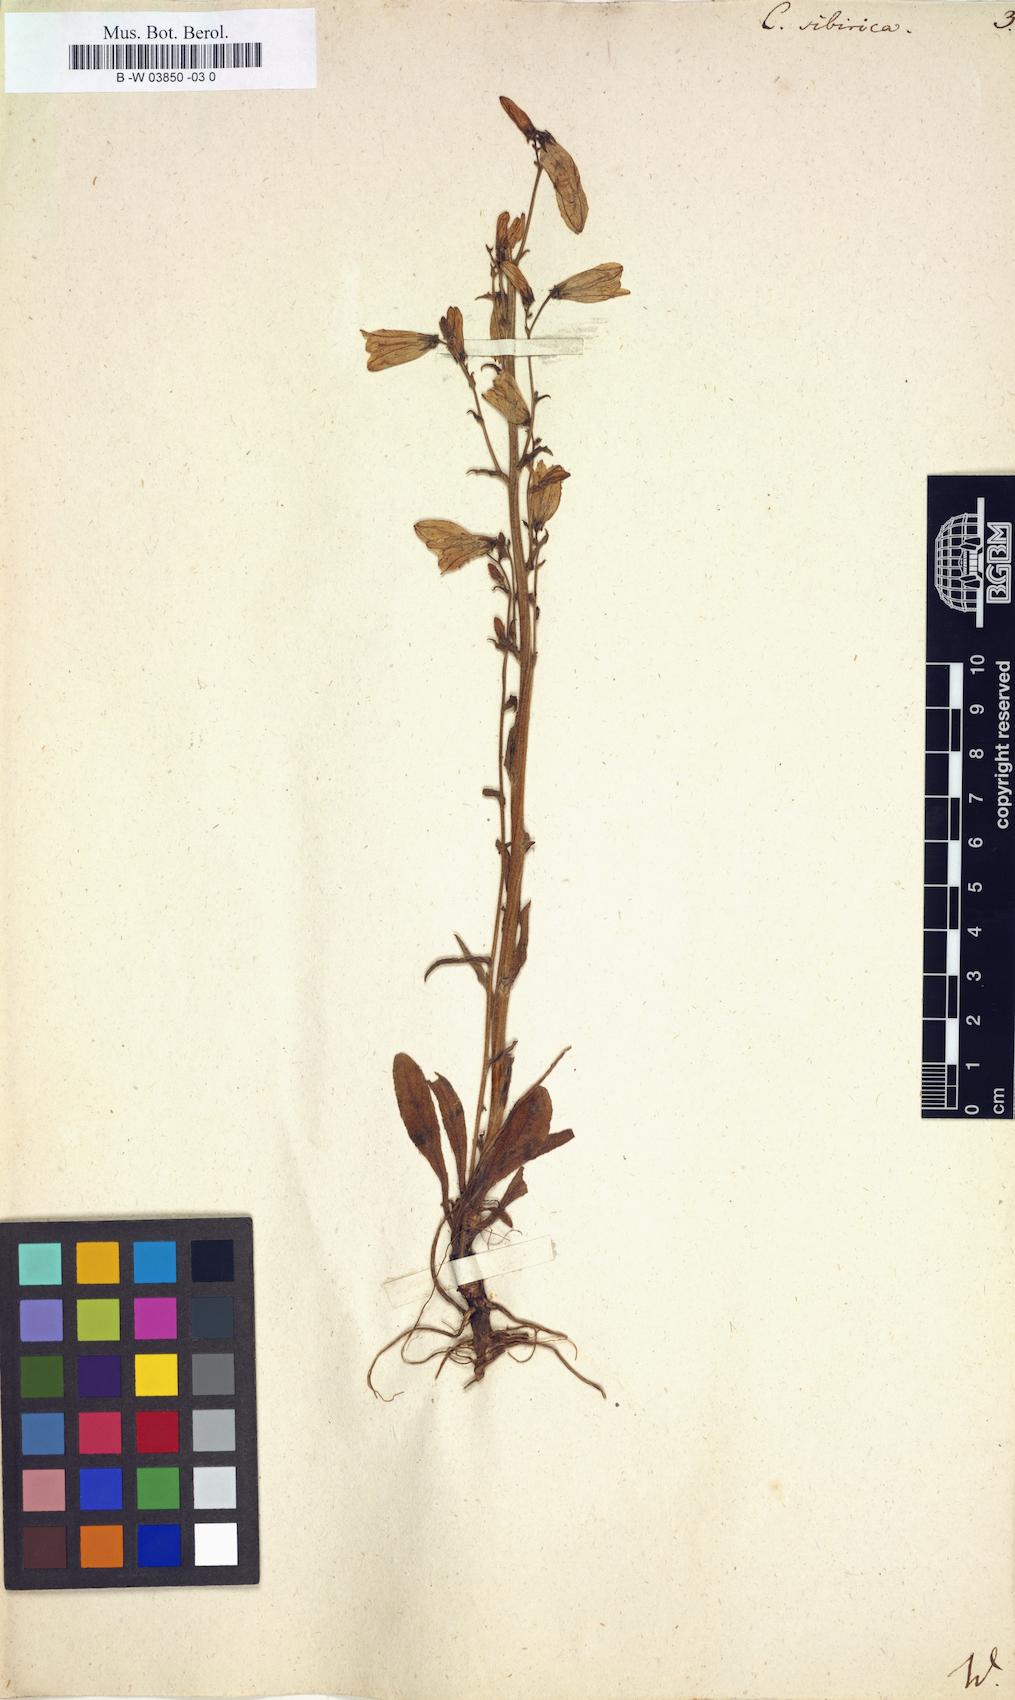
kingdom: Plantae
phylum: Tracheophyta
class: Magnoliopsida
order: Asterales
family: Campanulaceae
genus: Campanula
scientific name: Campanula sibirica
